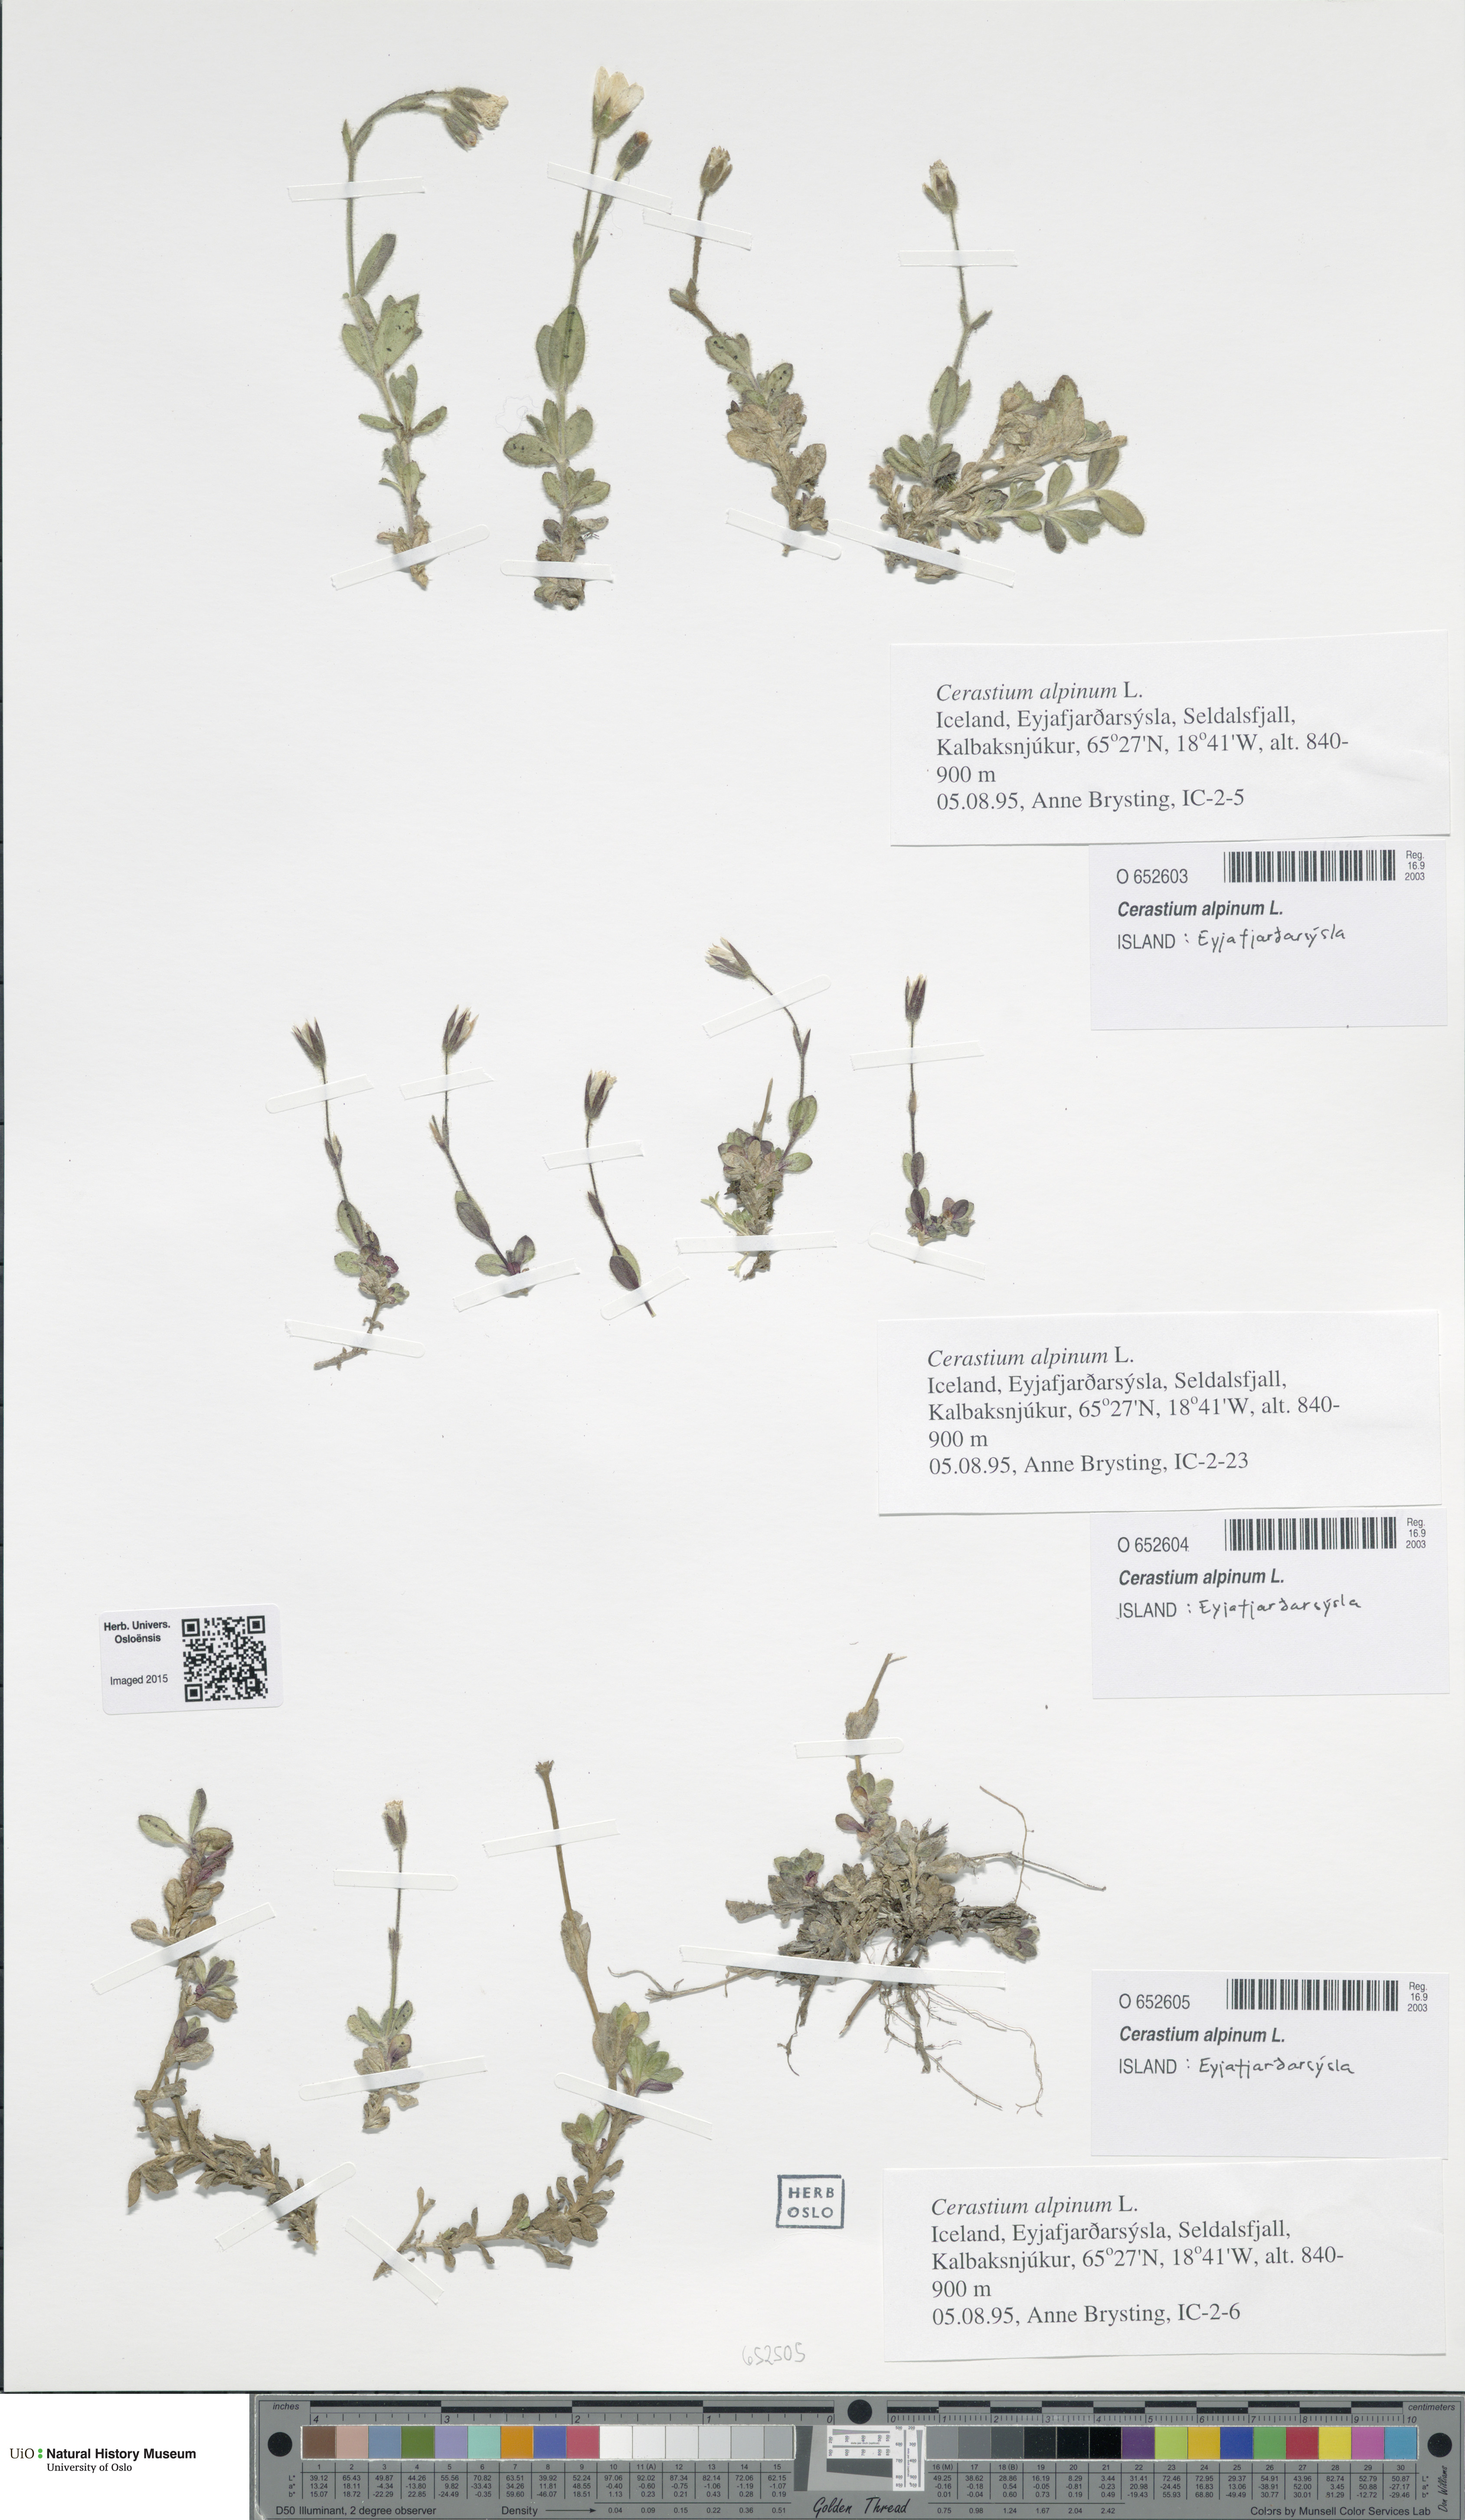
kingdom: Plantae
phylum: Tracheophyta
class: Magnoliopsida
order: Caryophyllales
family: Caryophyllaceae
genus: Cerastium
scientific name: Cerastium alpinum
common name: Alpine mouse-ear
